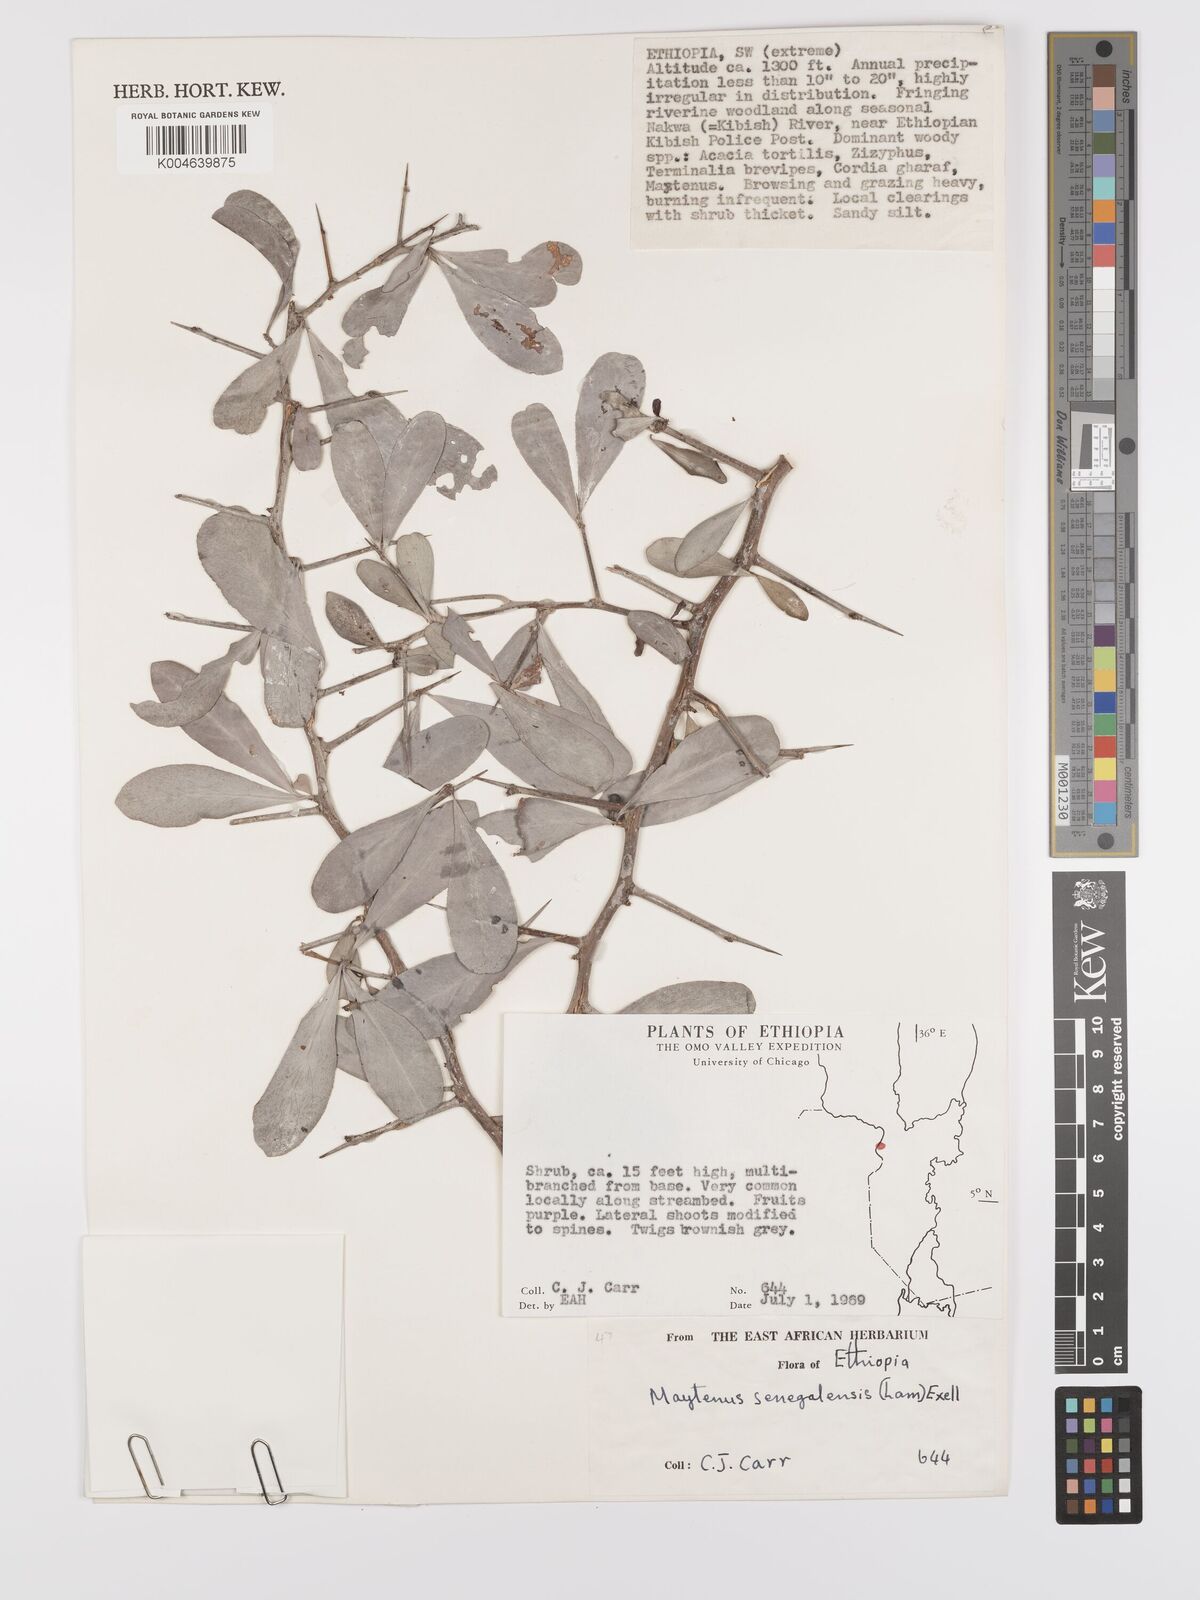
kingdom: Plantae
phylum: Tracheophyta
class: Magnoliopsida
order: Celastrales
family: Celastraceae
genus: Gymnosporia
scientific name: Gymnosporia senegalensis
